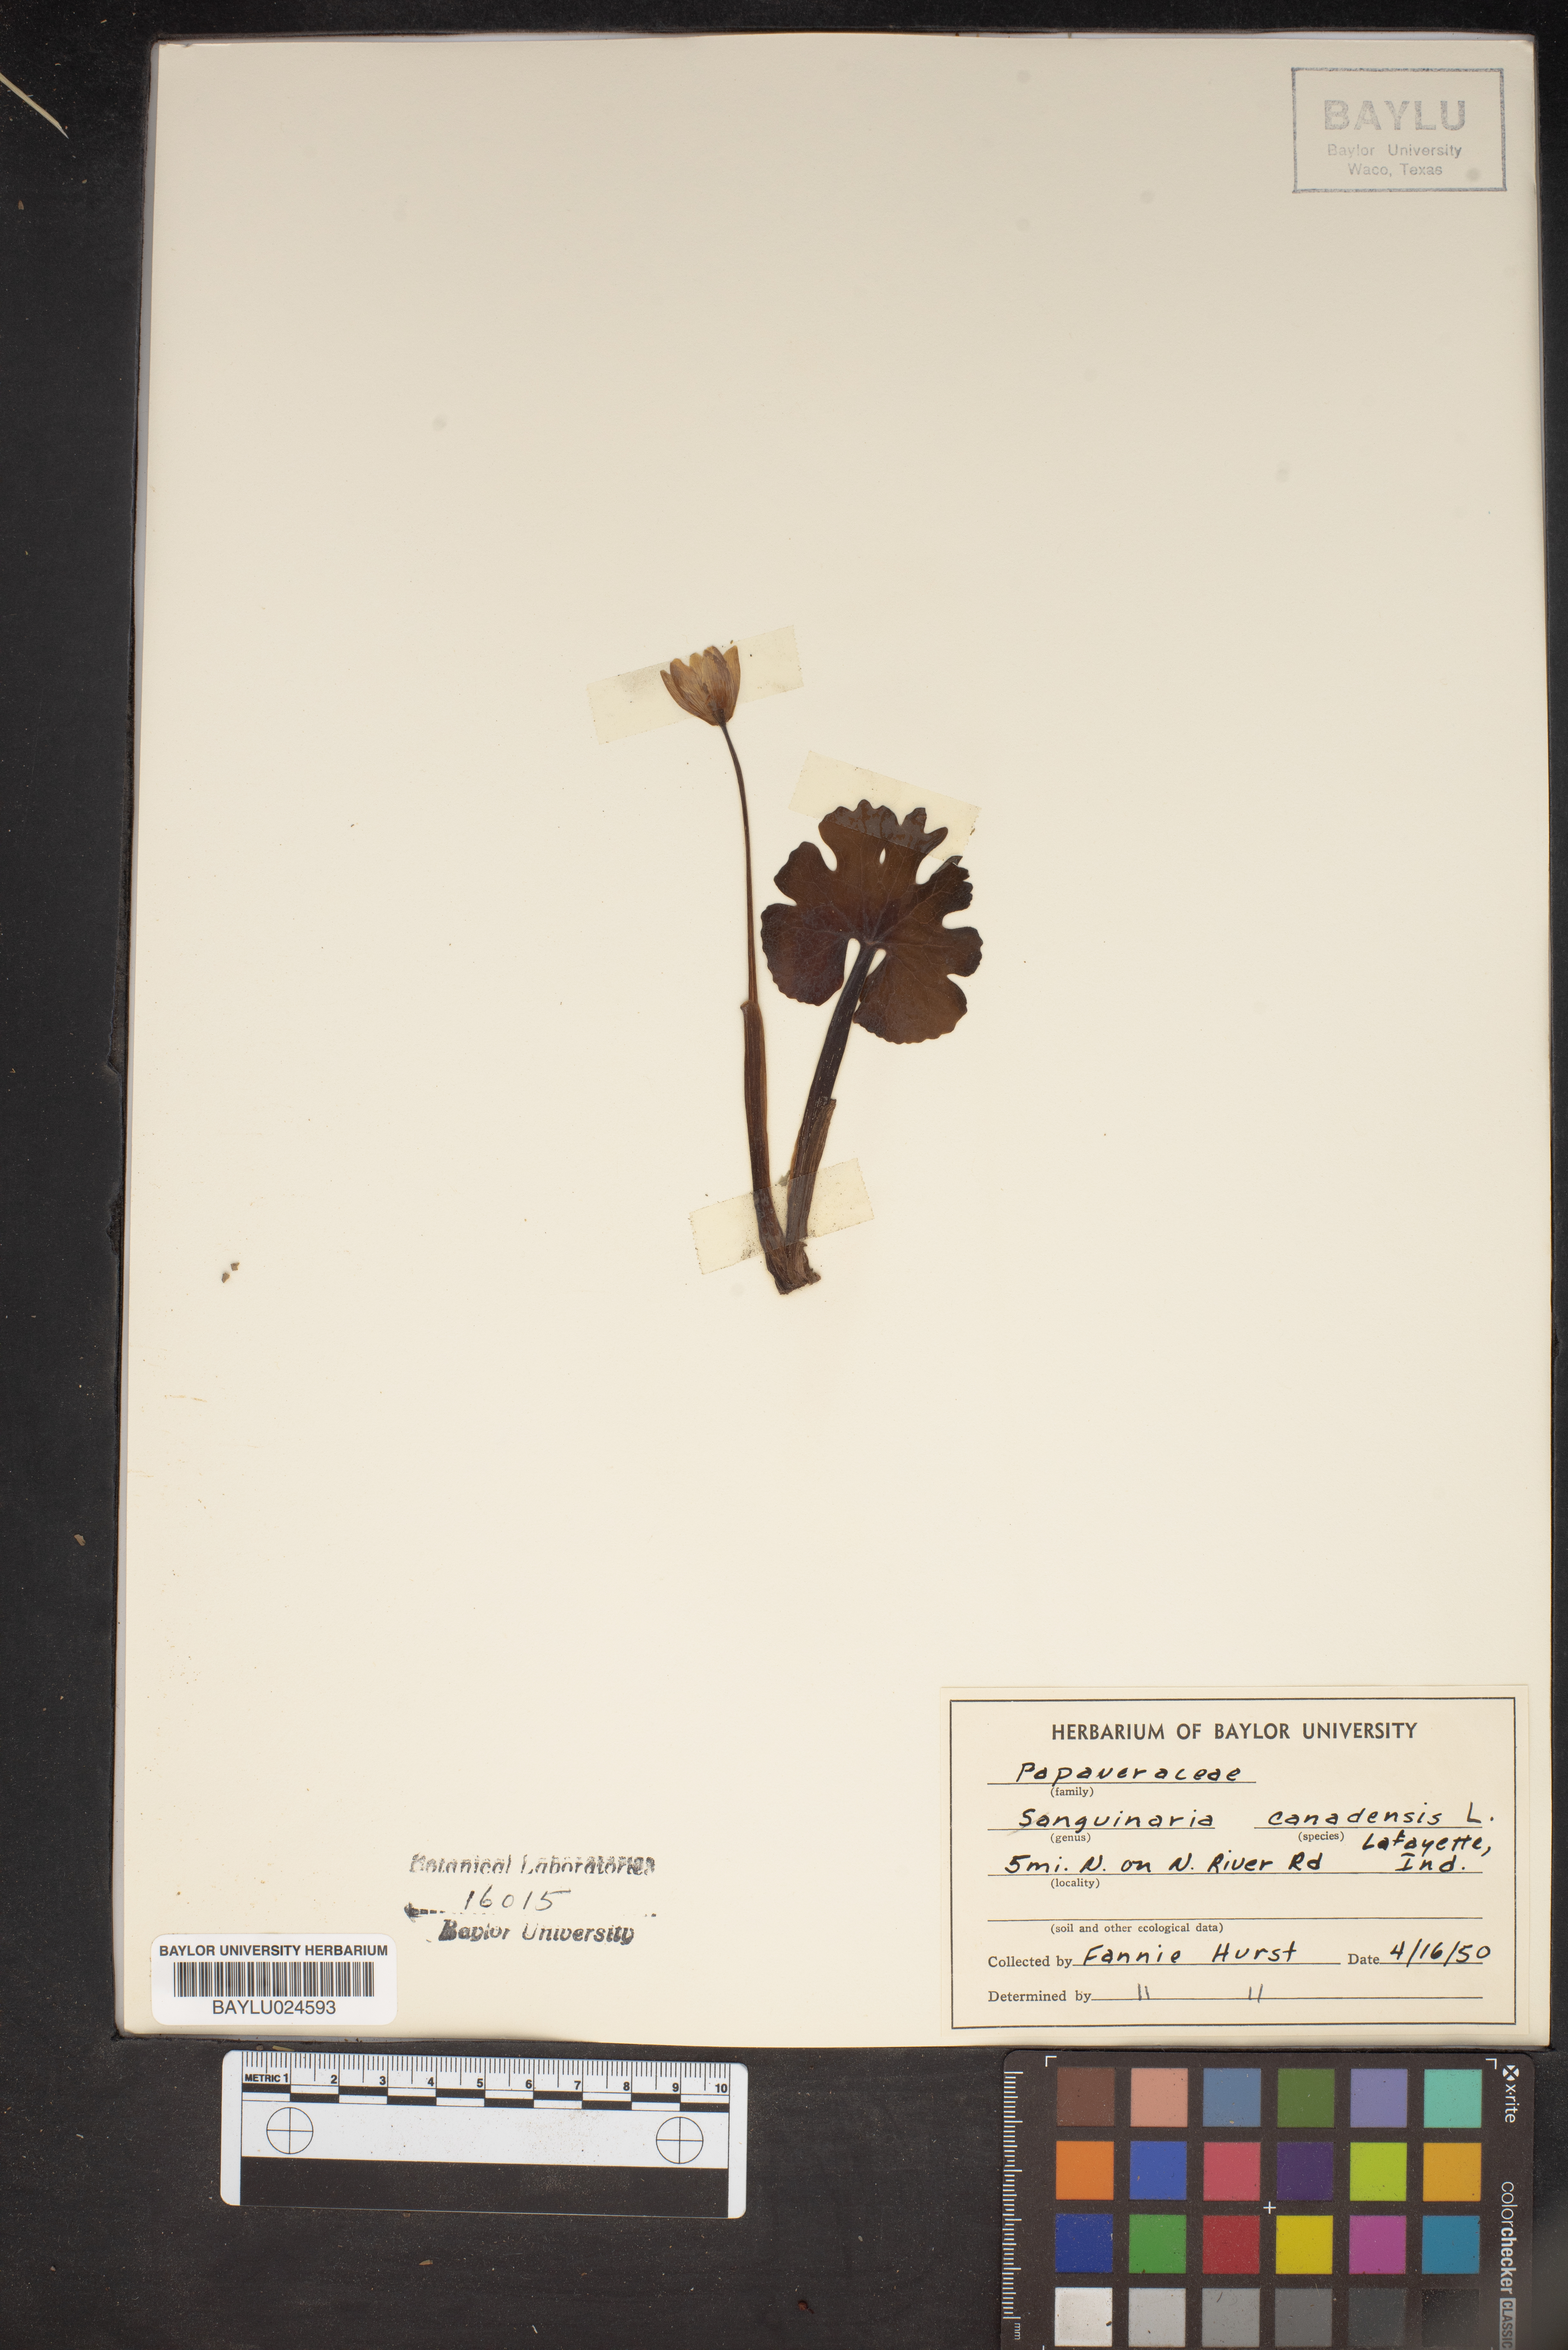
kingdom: Plantae
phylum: Tracheophyta
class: Magnoliopsida
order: Ranunculales
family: Papaveraceae
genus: Sanguinaria
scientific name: Sanguinaria canadensis
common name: Bloodroot
